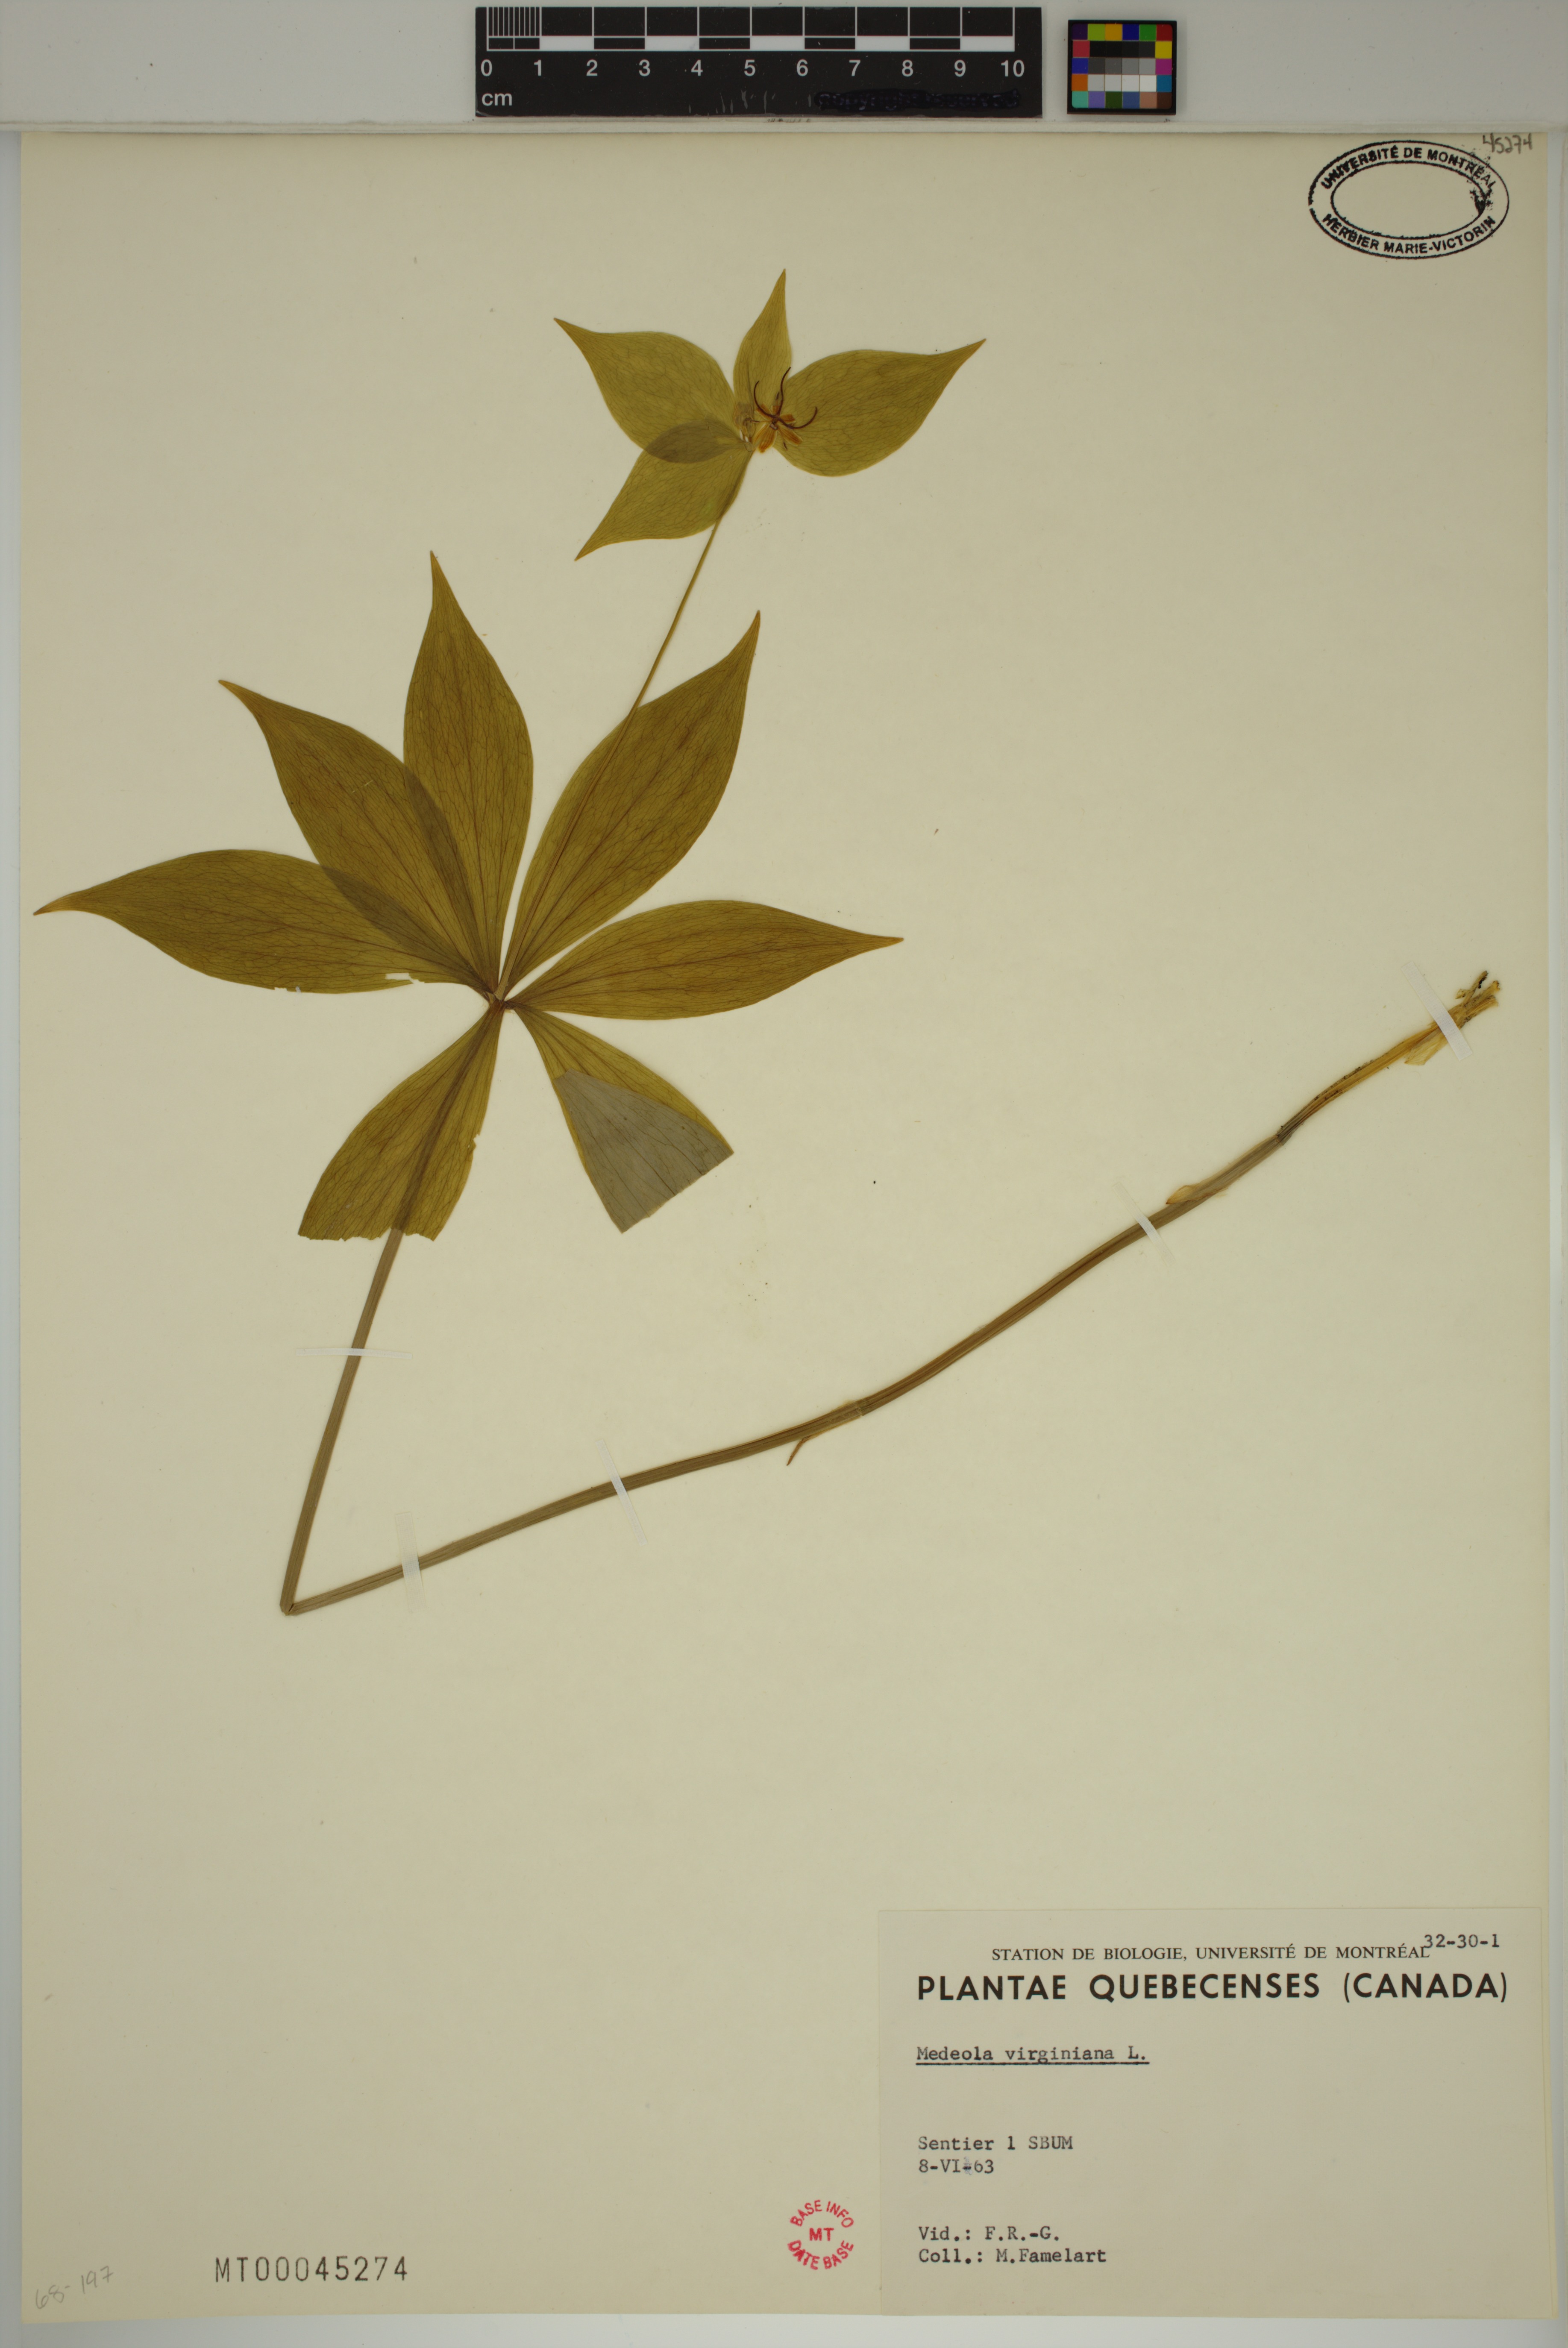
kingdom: Plantae
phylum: Tracheophyta
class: Liliopsida
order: Liliales
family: Liliaceae
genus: Medeola
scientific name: Medeola virginiana
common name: Indian cucumber-root
